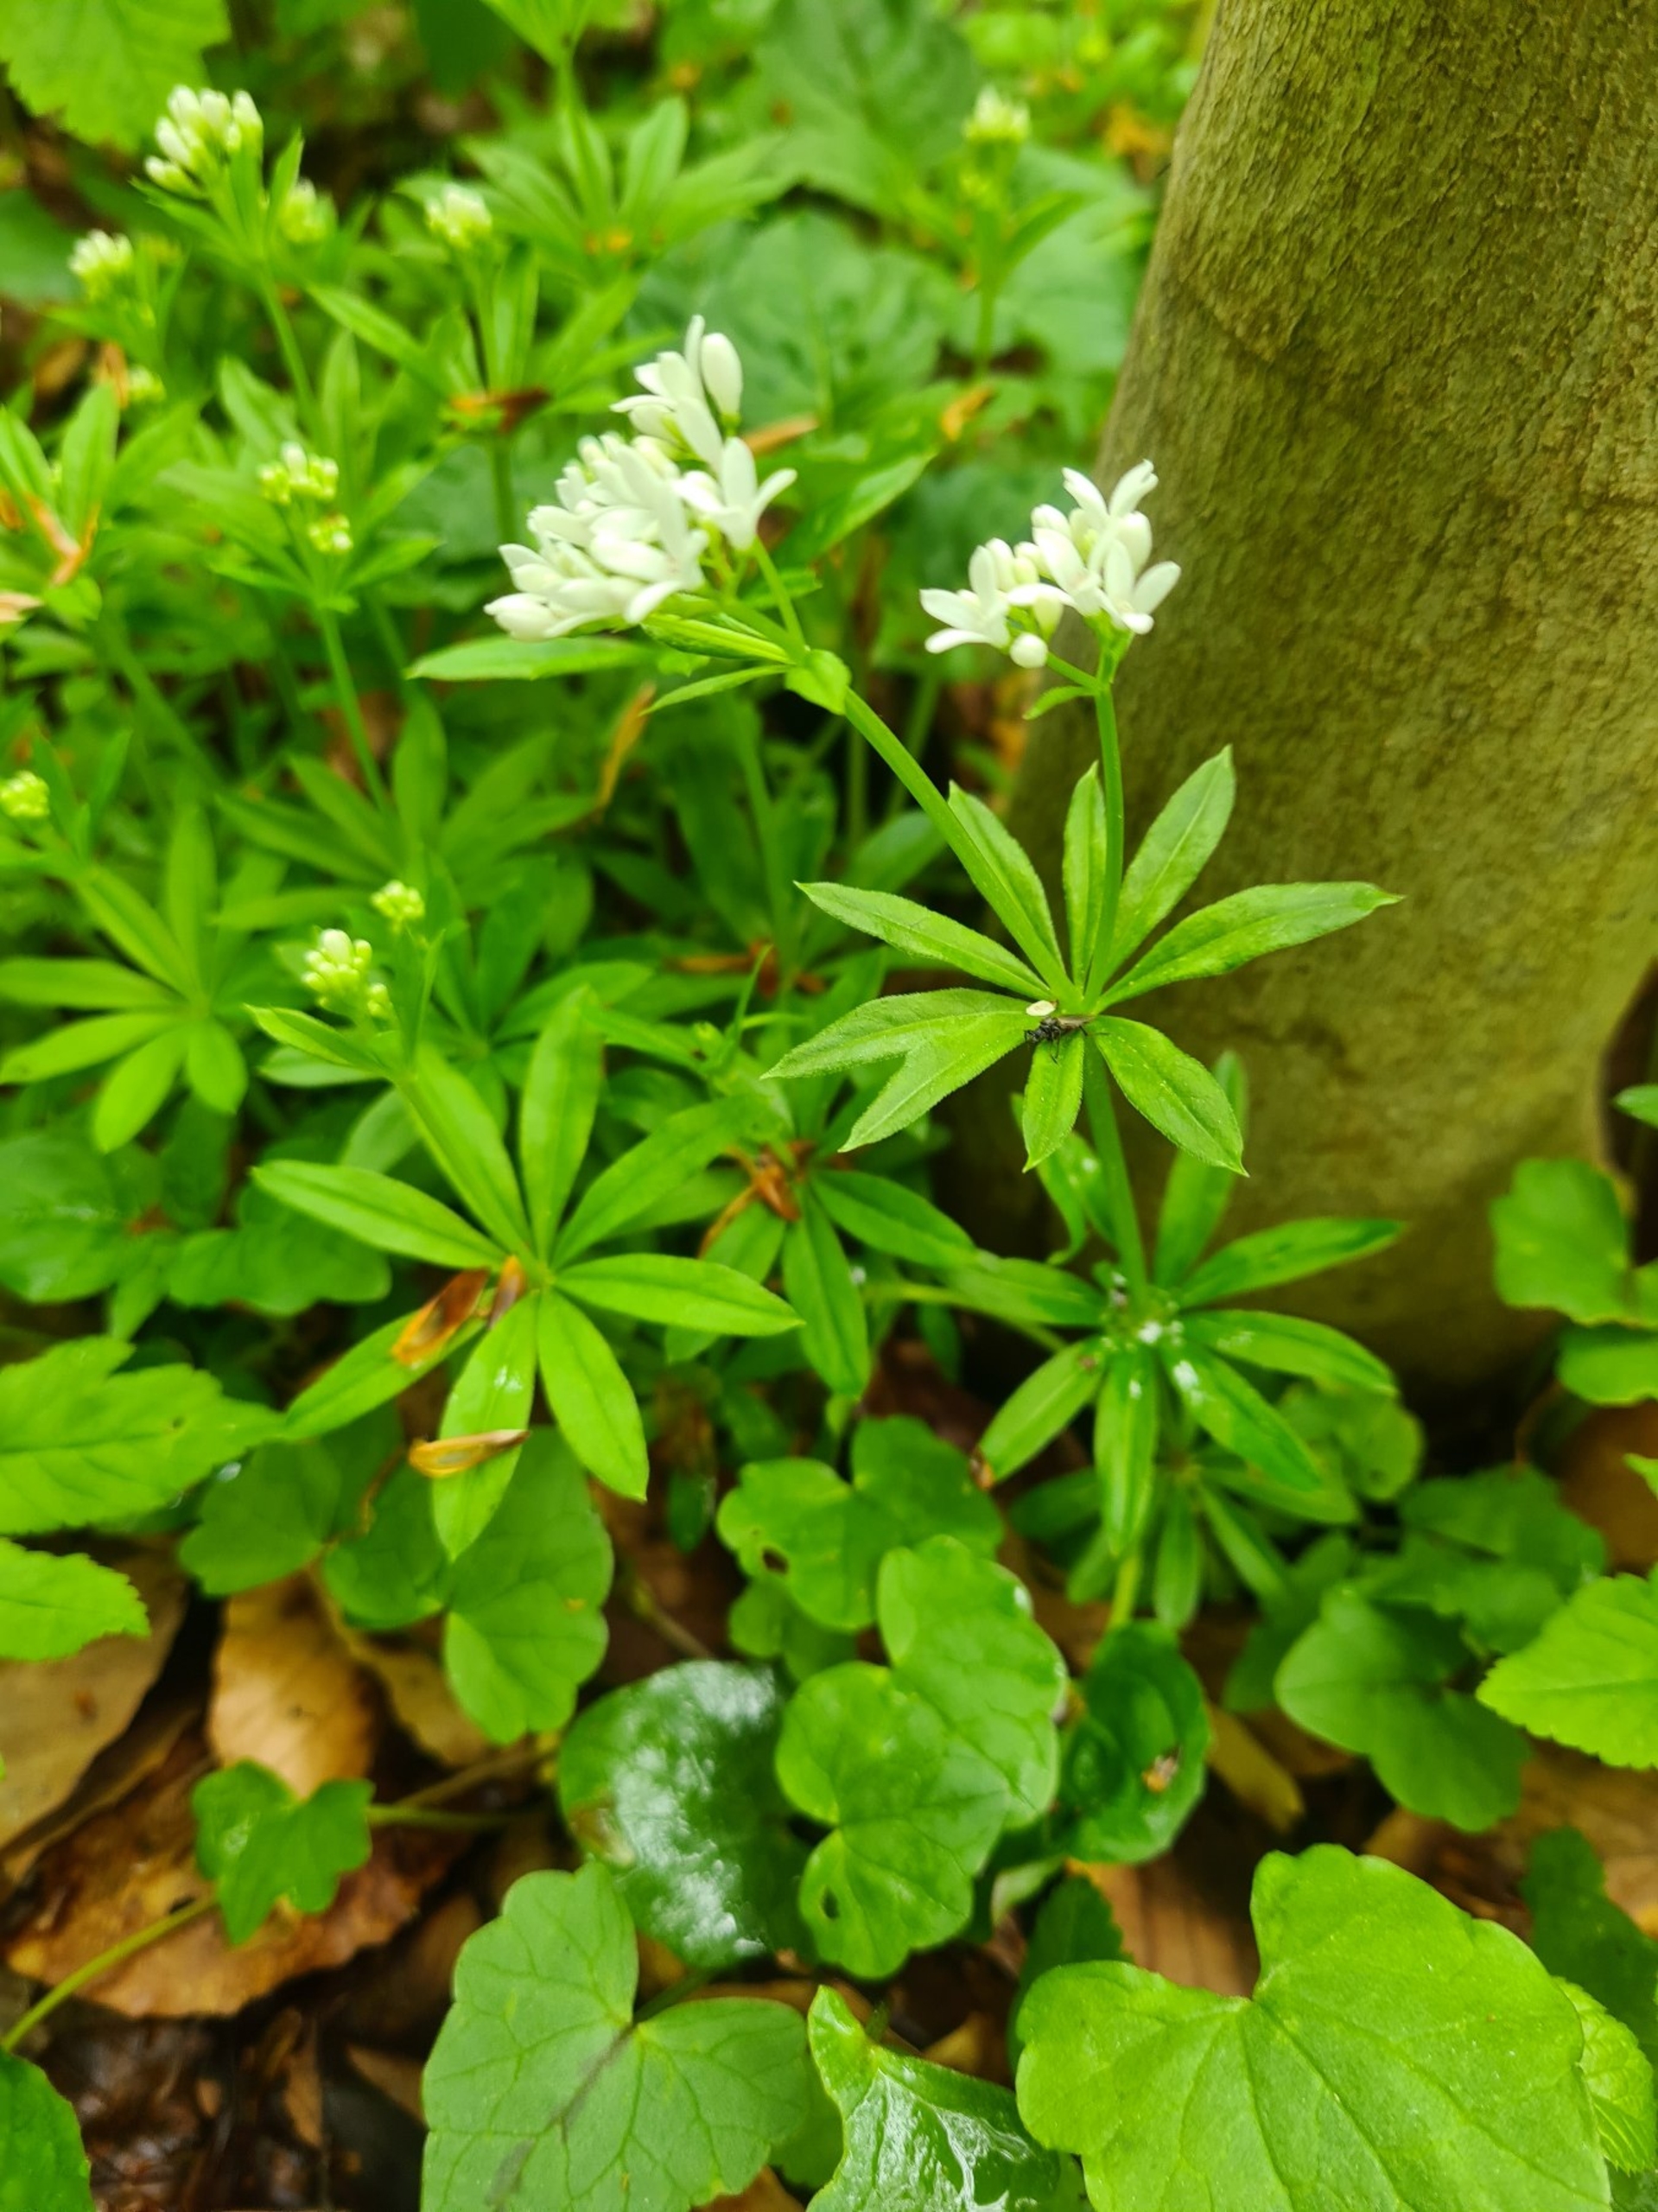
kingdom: Plantae
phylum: Tracheophyta
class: Magnoliopsida
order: Gentianales
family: Rubiaceae
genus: Galium
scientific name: Galium odoratum
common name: Skovmærke
